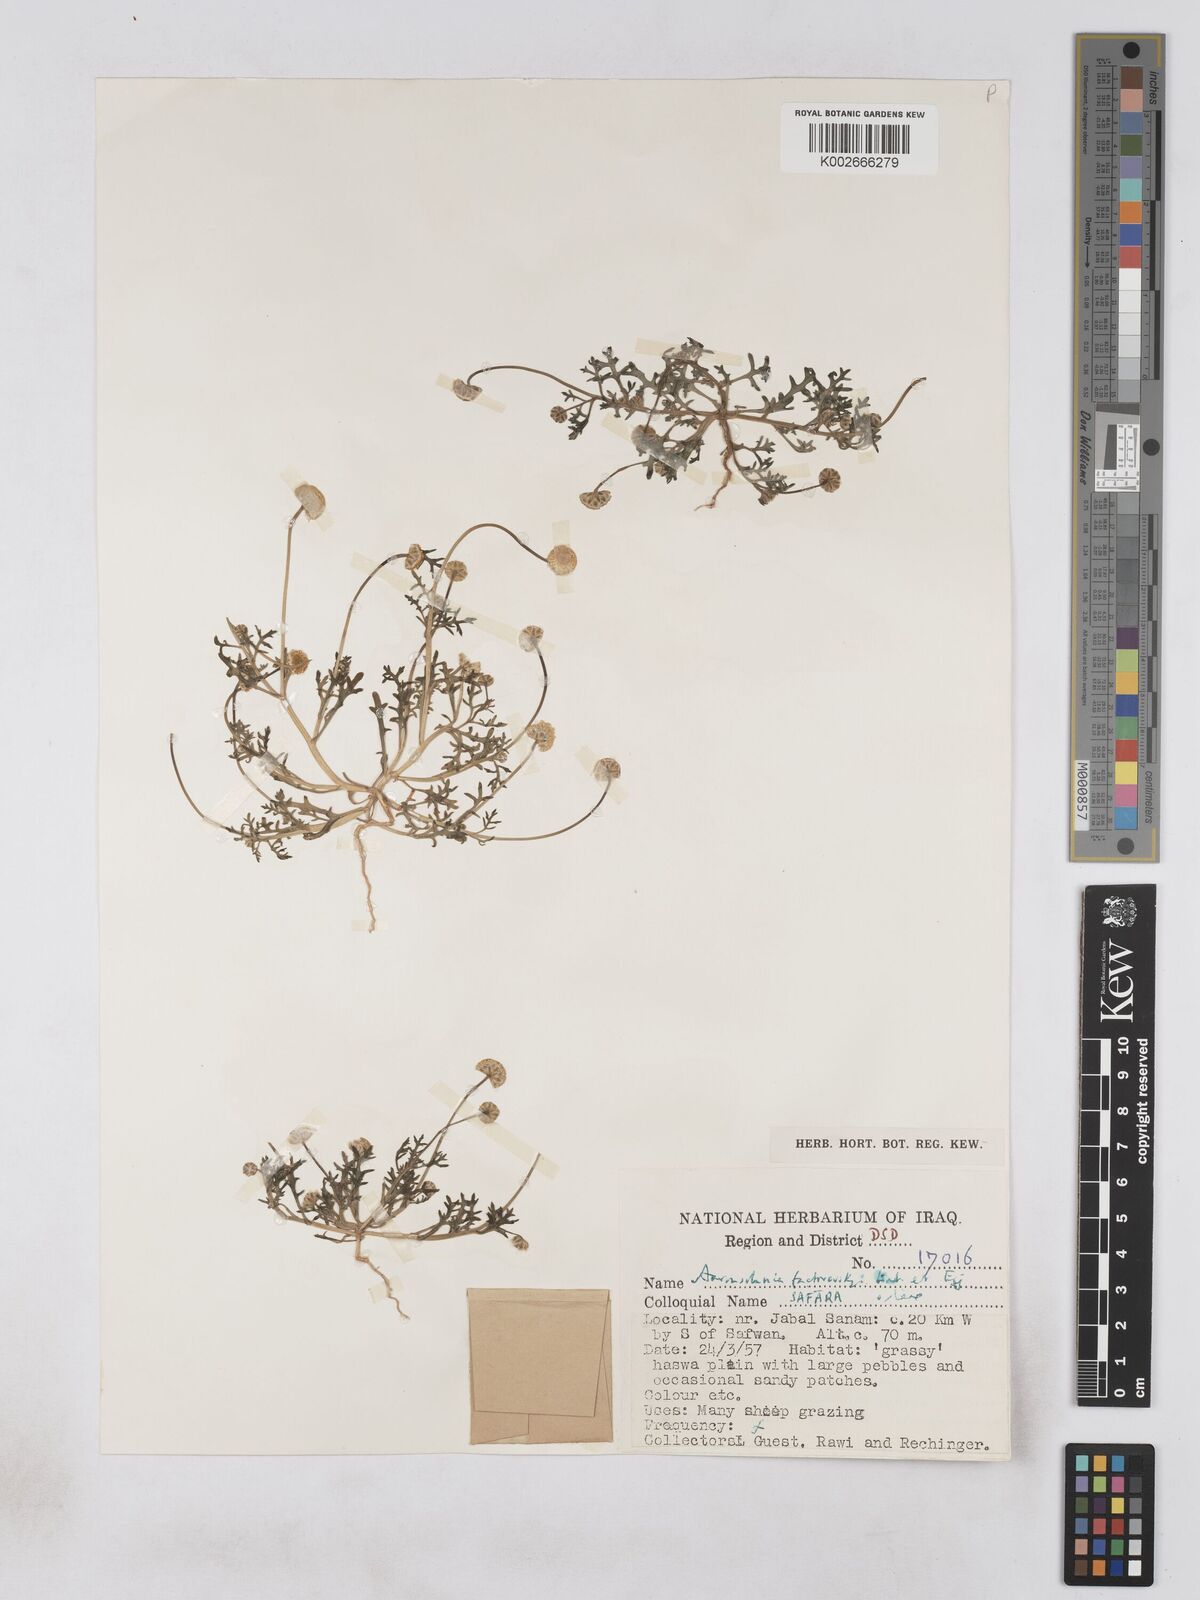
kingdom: Plantae
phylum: Tracheophyta
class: Magnoliopsida
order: Asterales
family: Asteraceae
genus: Otoglyphis
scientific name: Otoglyphis factorovskyi
